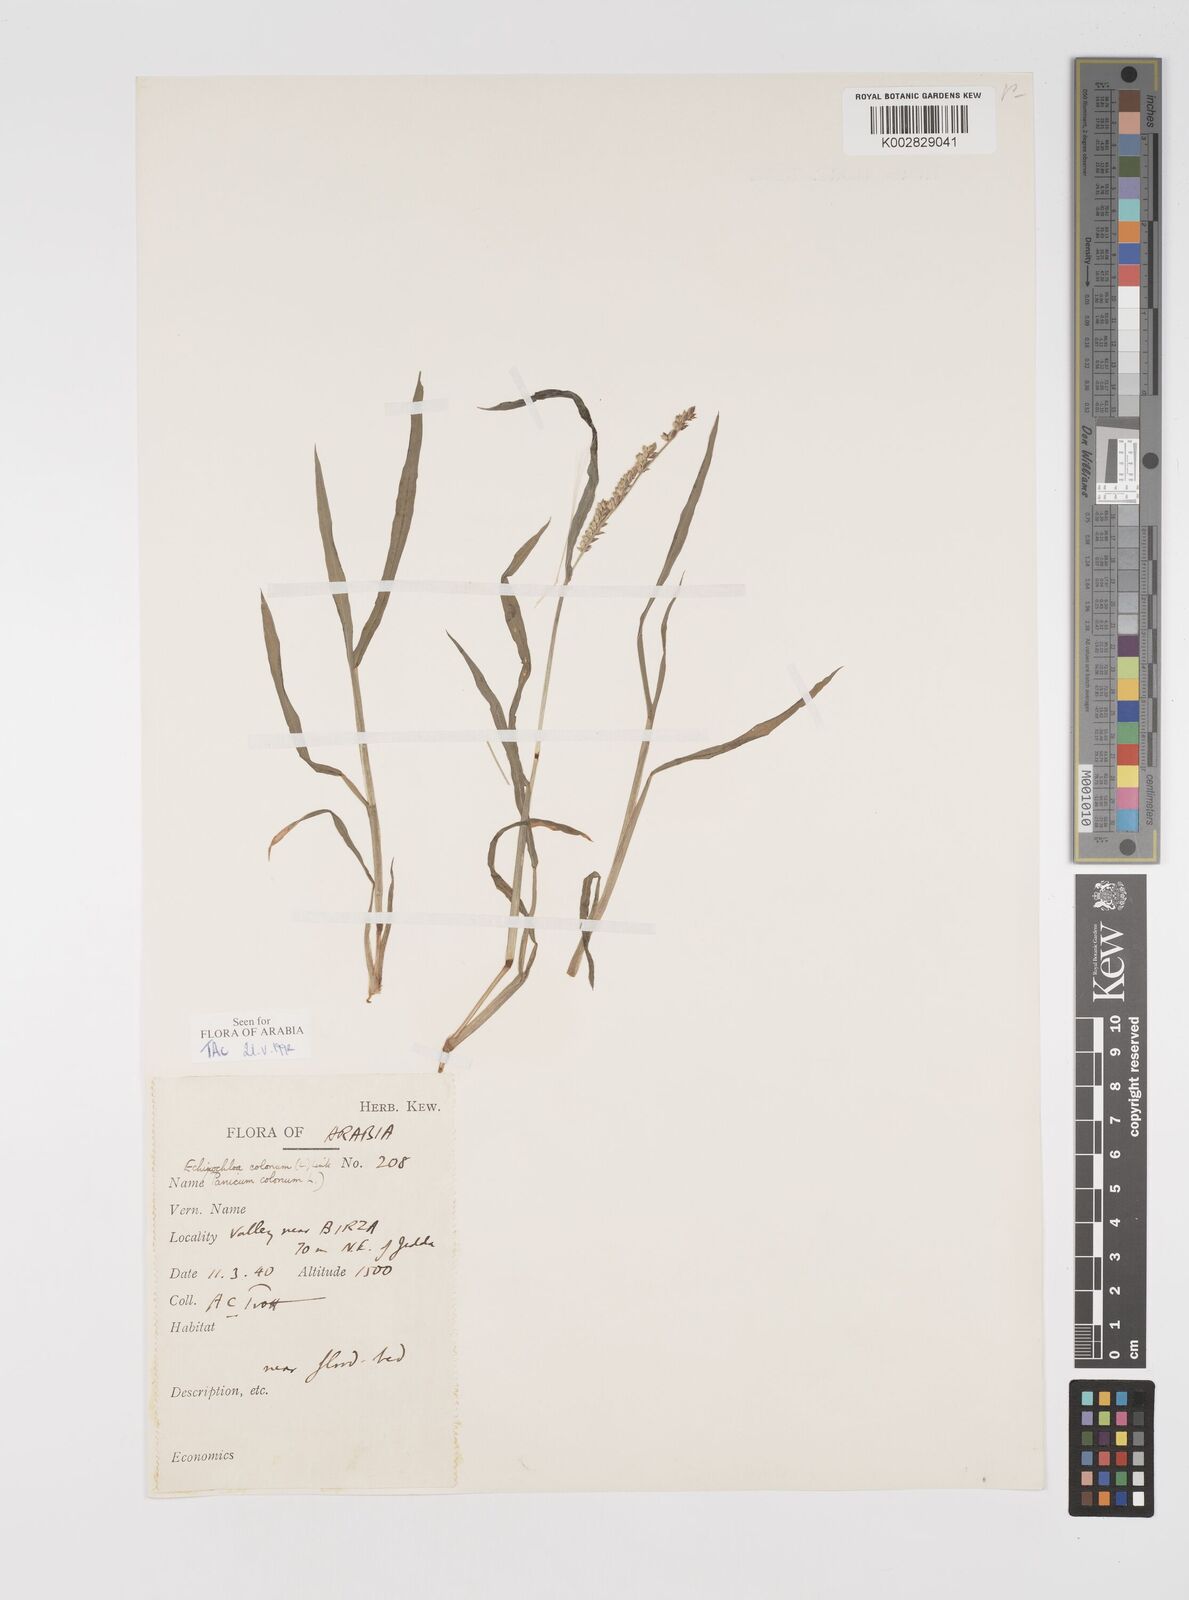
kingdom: Plantae
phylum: Tracheophyta
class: Liliopsida
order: Poales
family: Poaceae
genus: Echinochloa
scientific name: Echinochloa colonum
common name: Jungle rice
